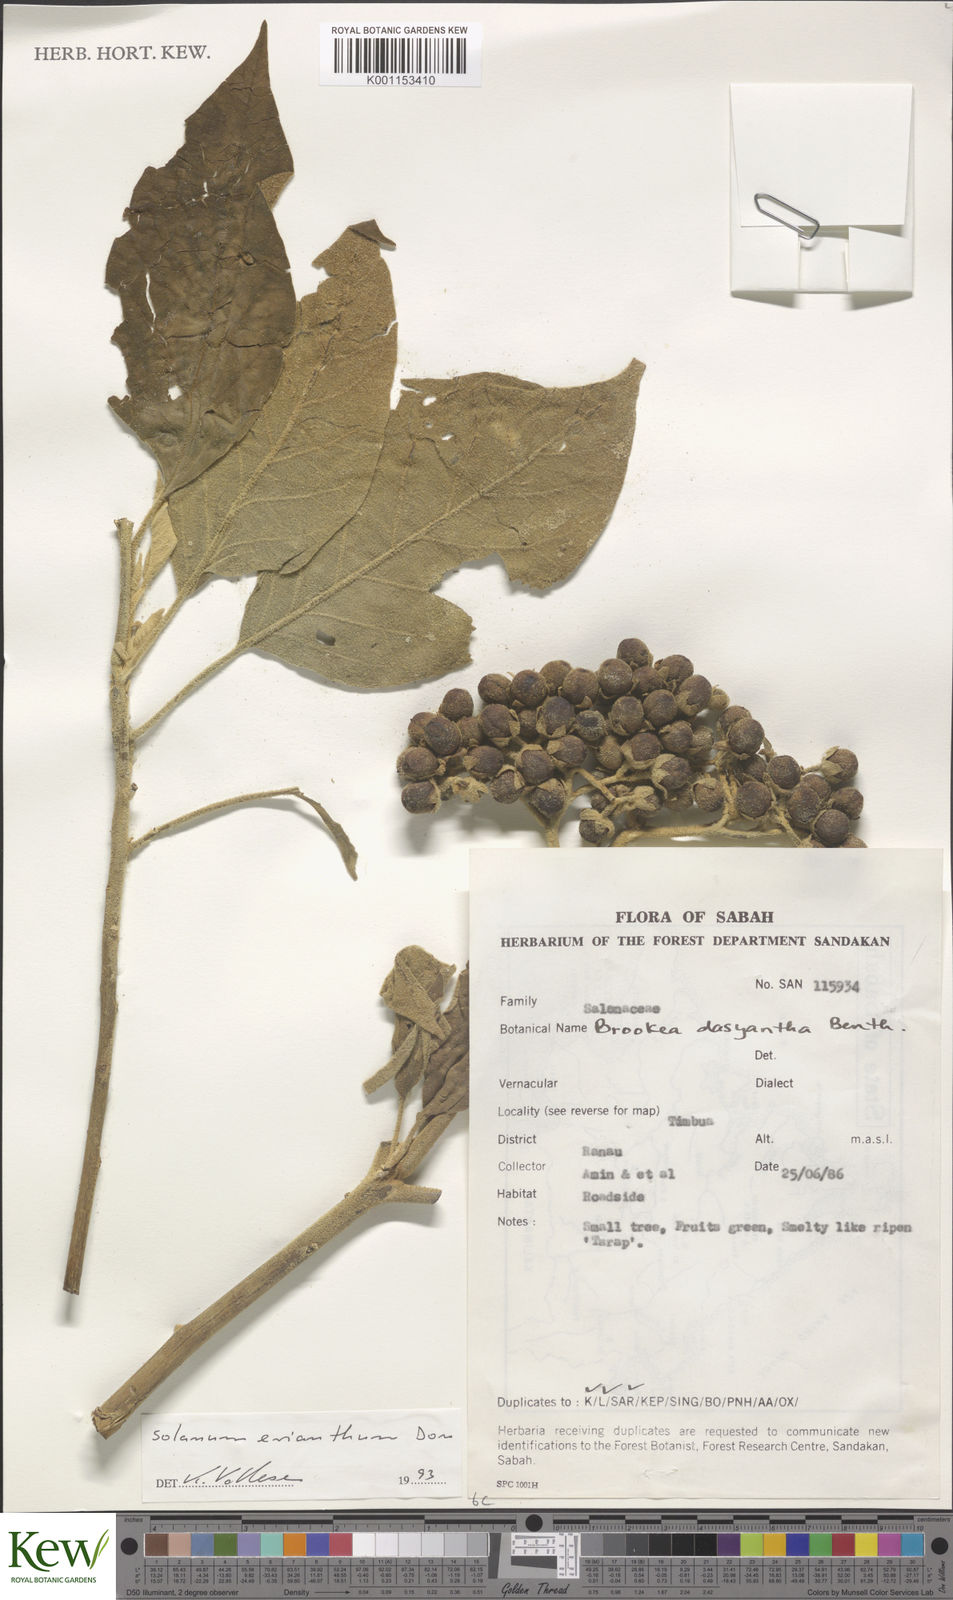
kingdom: Plantae
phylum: Tracheophyta
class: Magnoliopsida
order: Solanales
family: Solanaceae
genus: Solanum
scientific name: Solanum erianthum
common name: Tobacco-tree
